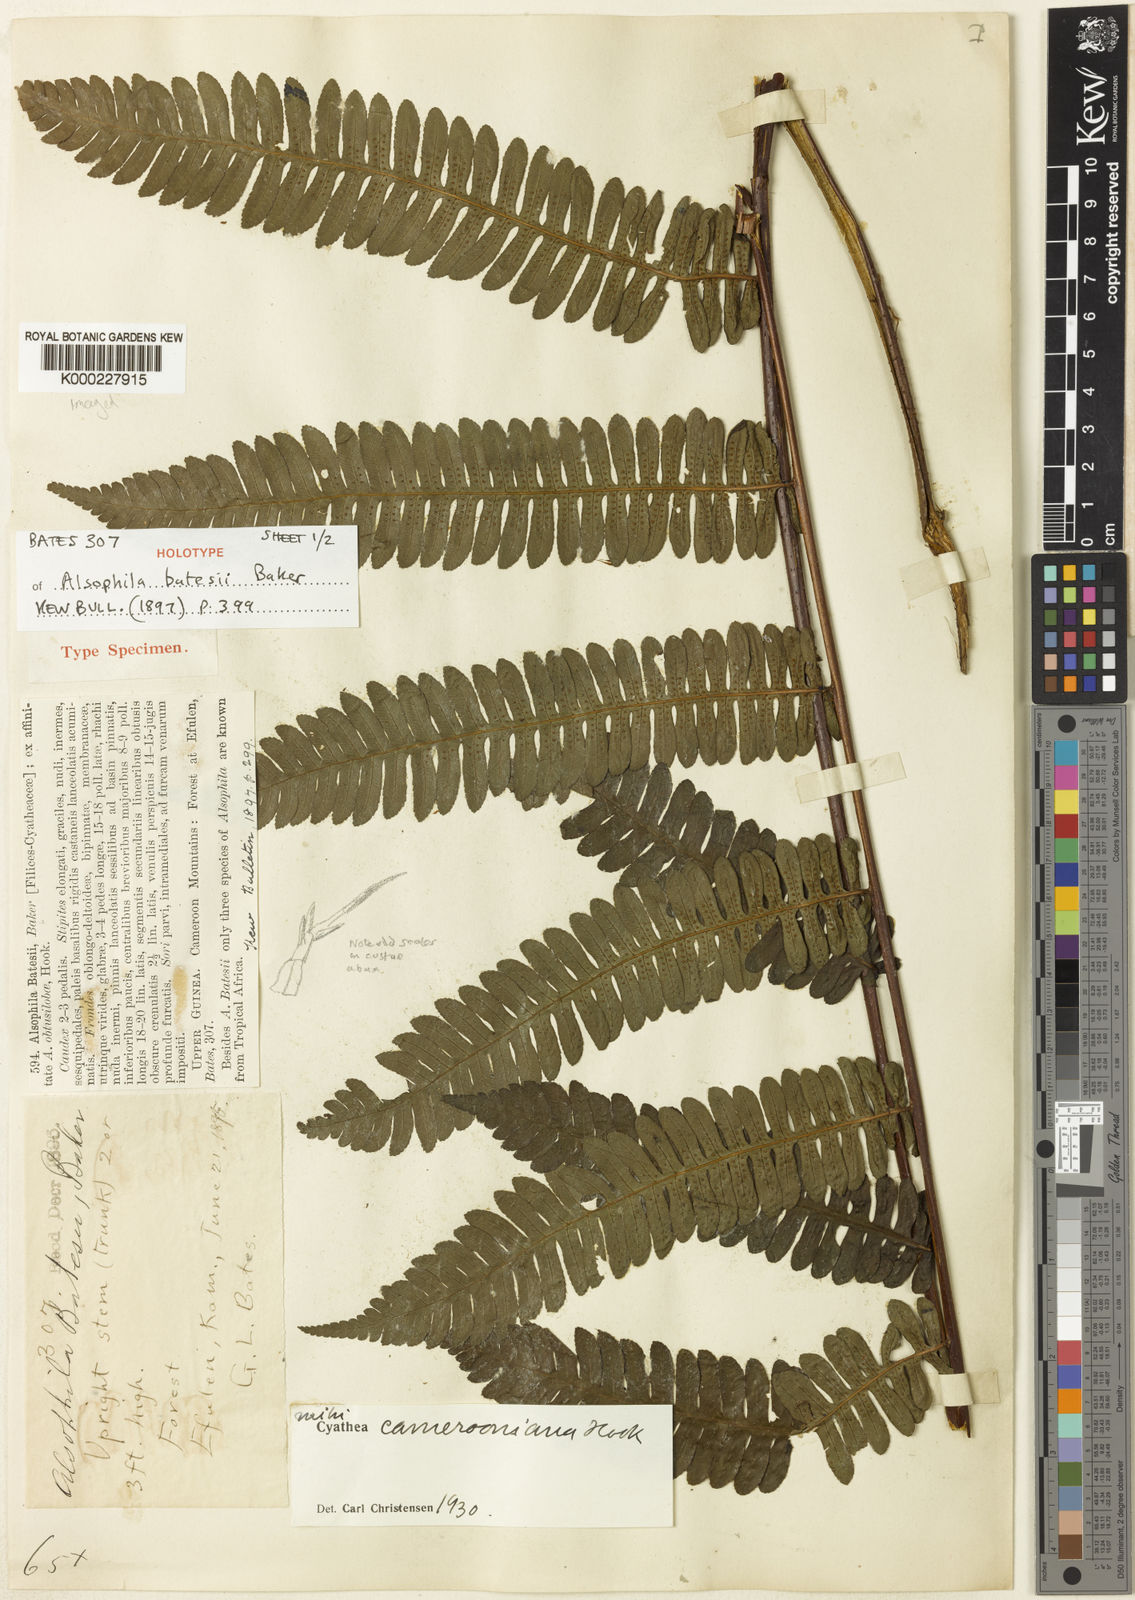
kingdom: Plantae
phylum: Tracheophyta
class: Polypodiopsida
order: Cyatheales
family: Cyatheaceae
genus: Alsophila
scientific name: Alsophila camerooniana
